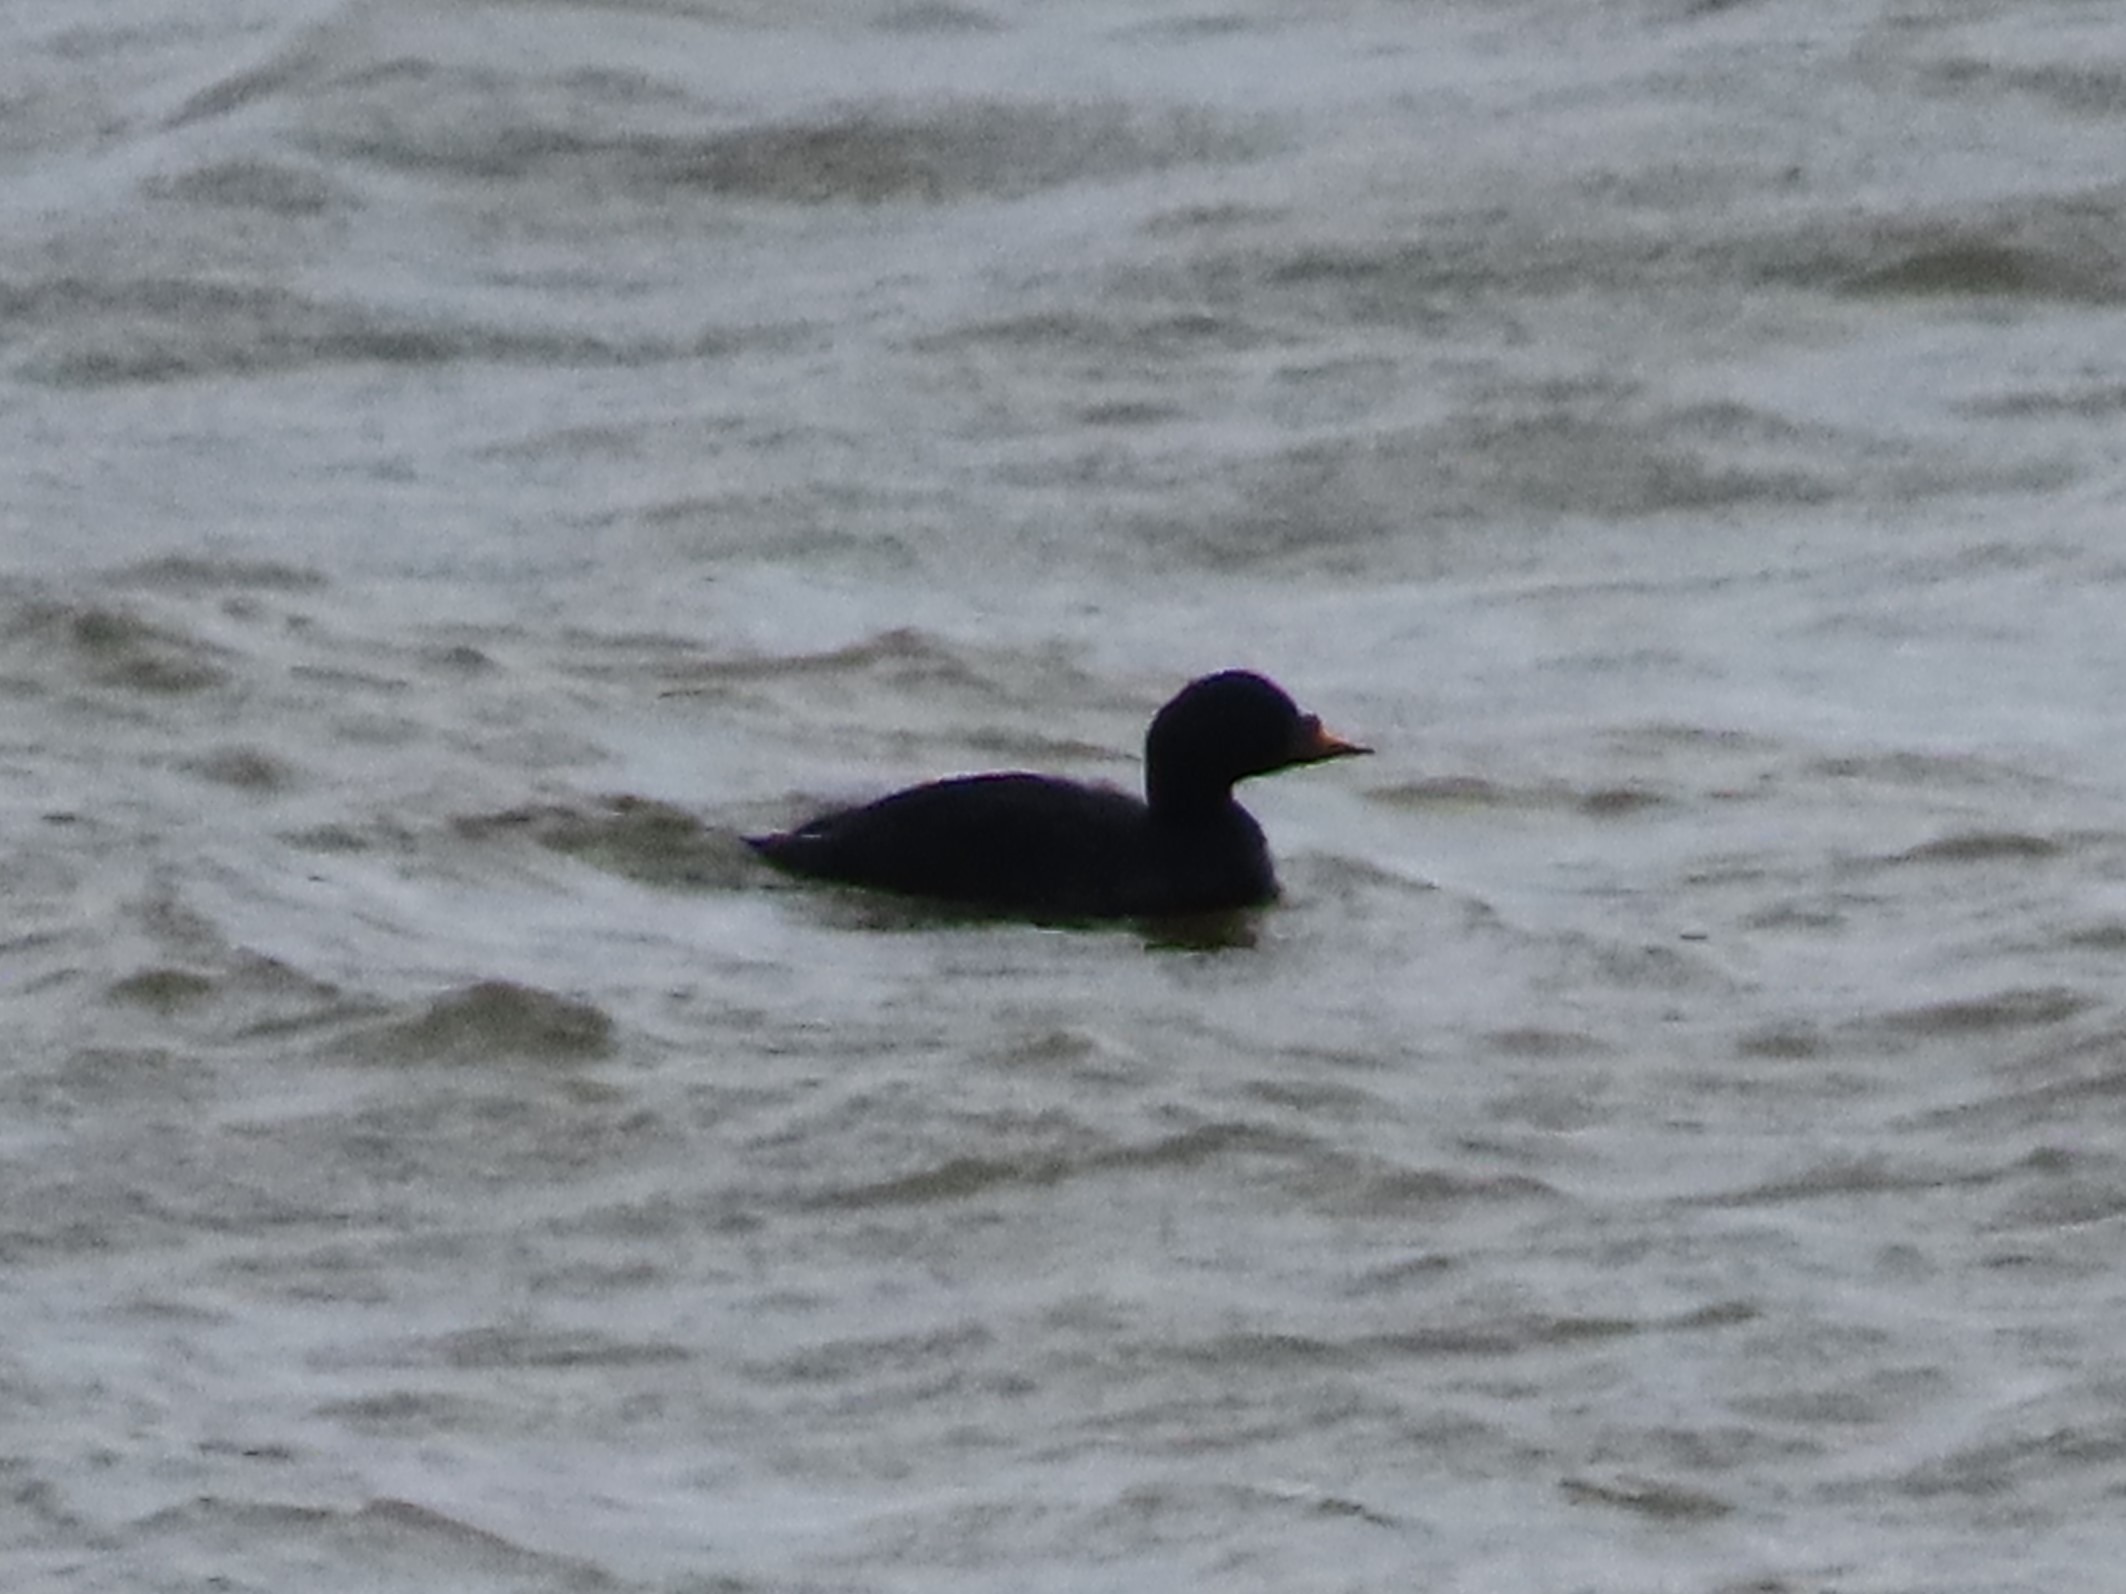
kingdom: Animalia
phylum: Chordata
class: Aves
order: Anseriformes
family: Anatidae
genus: Melanitta
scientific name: Melanitta nigra
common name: Sortand
